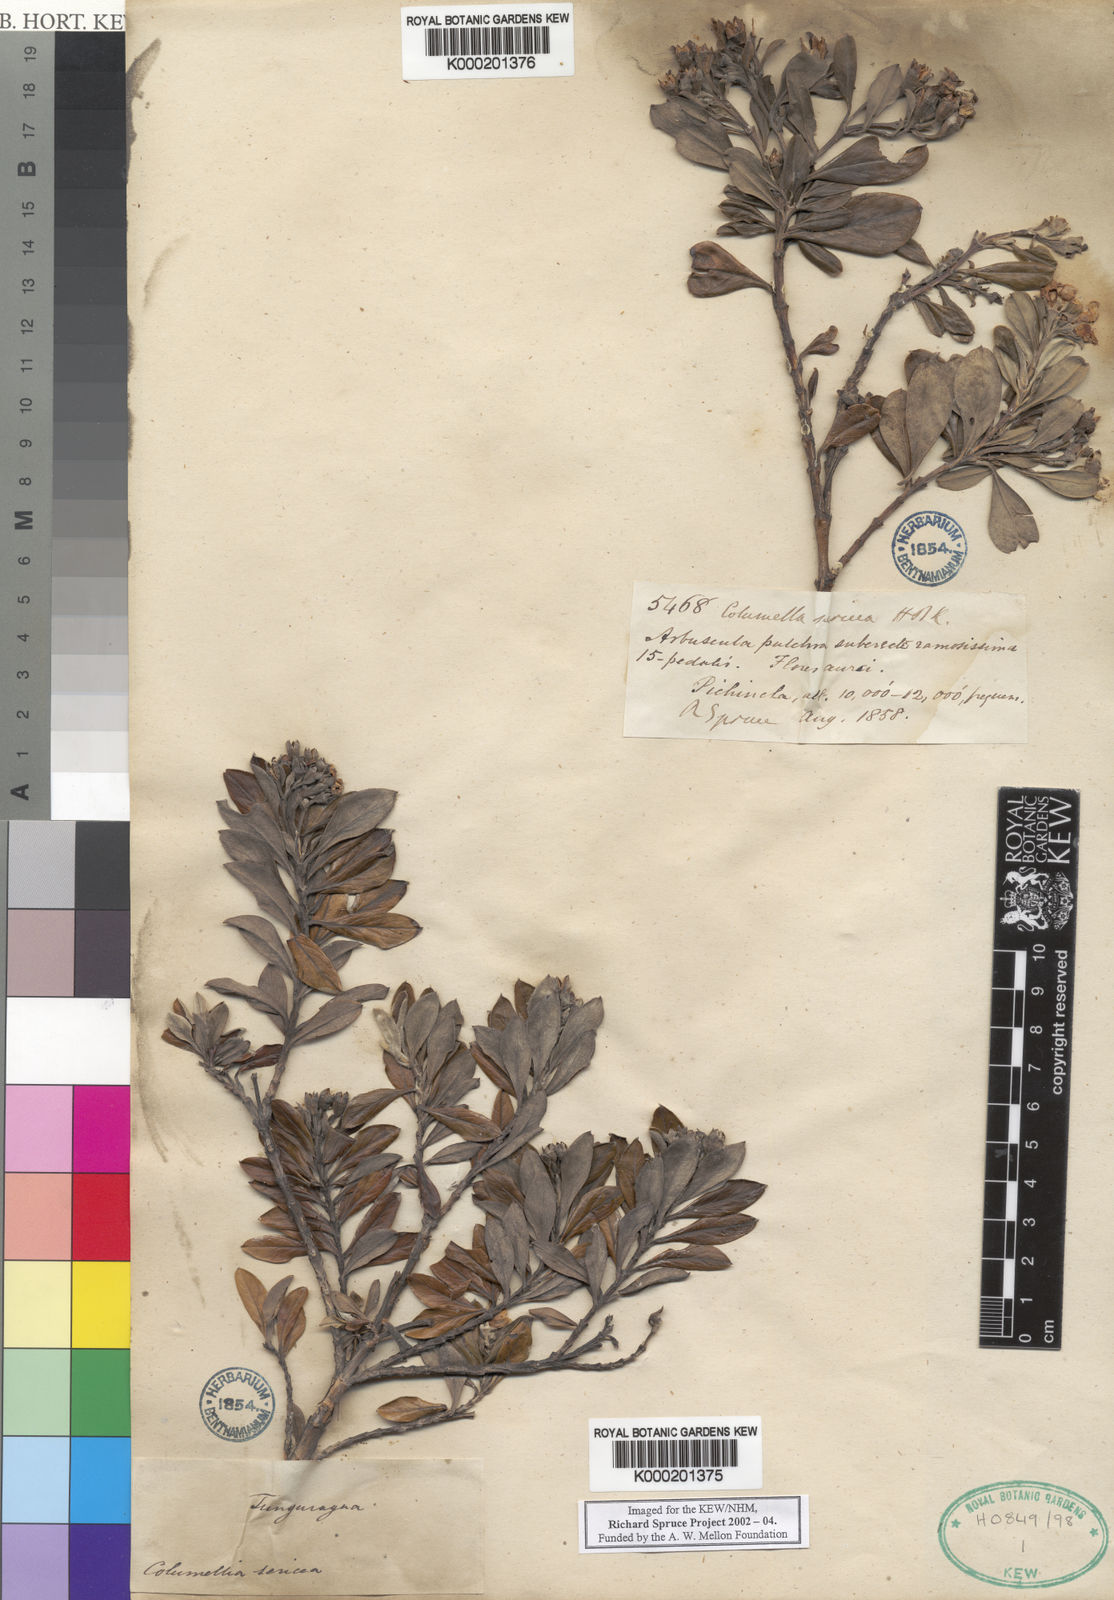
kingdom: Plantae
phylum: Tracheophyta
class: Magnoliopsida
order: Bruniales
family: Columelliaceae
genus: Columellia
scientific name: Columellia oblonga
